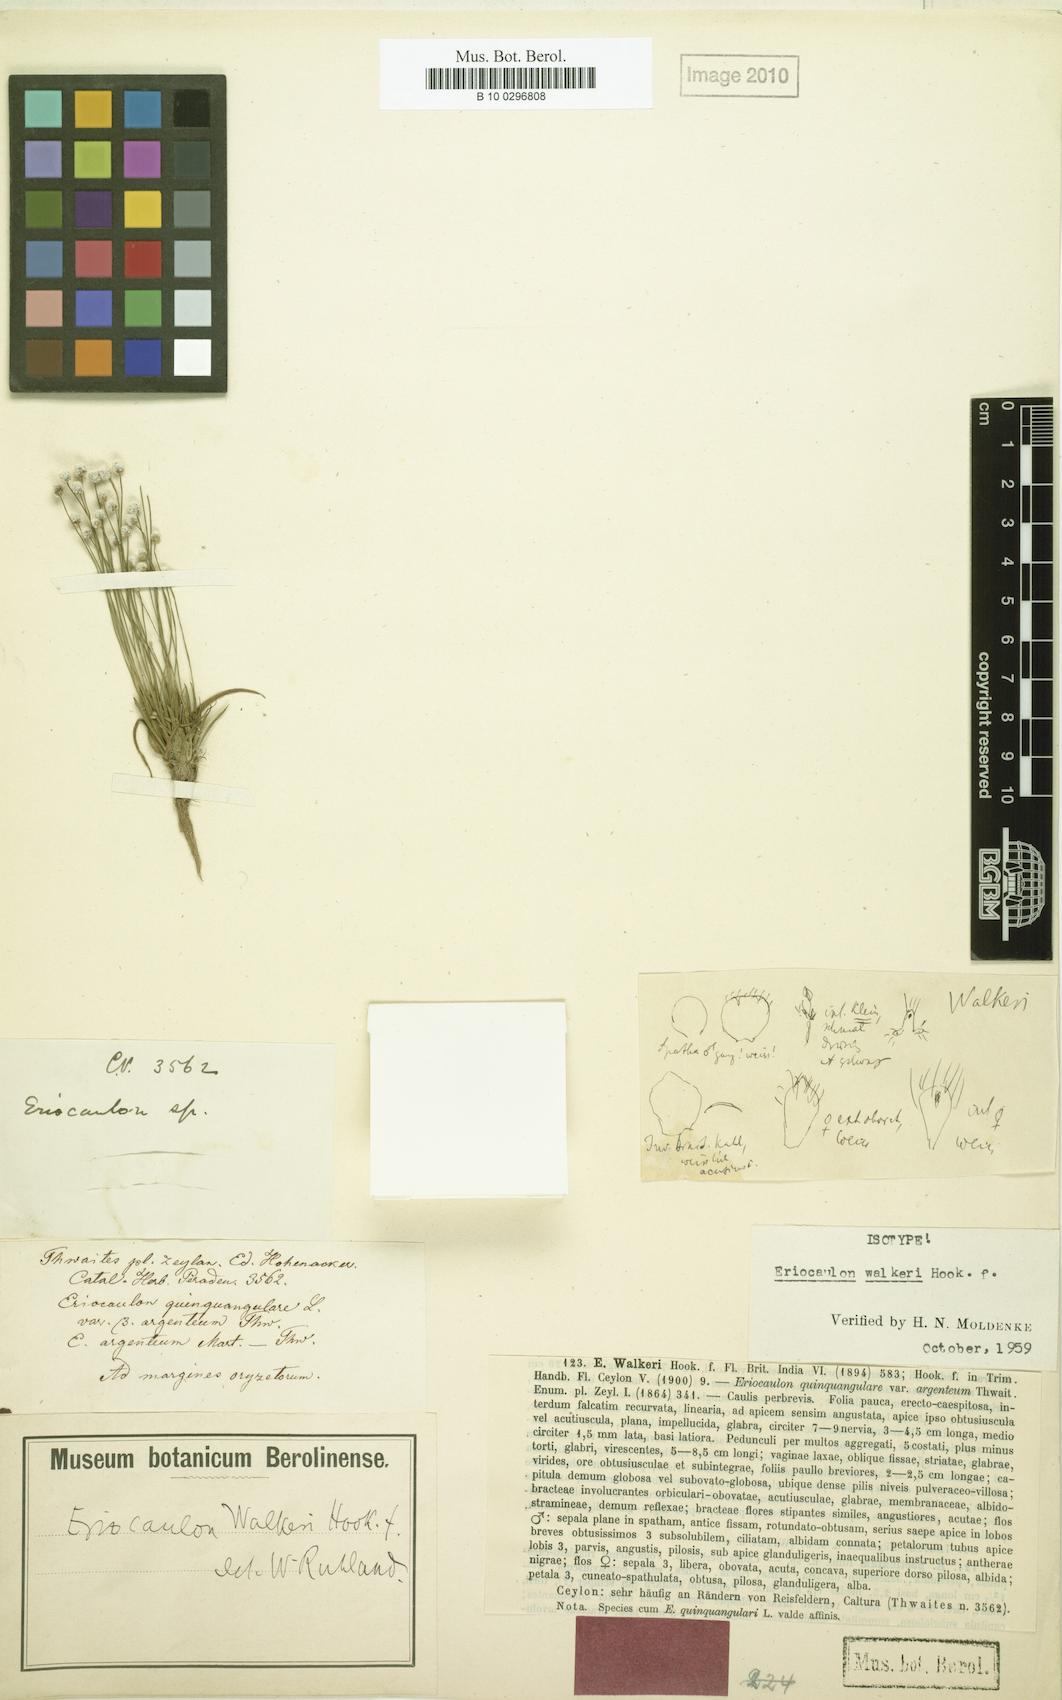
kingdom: Plantae
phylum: Tracheophyta
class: Liliopsida
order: Poales
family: Eriocaulaceae
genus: Eriocaulon
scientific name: Eriocaulon walkeri
